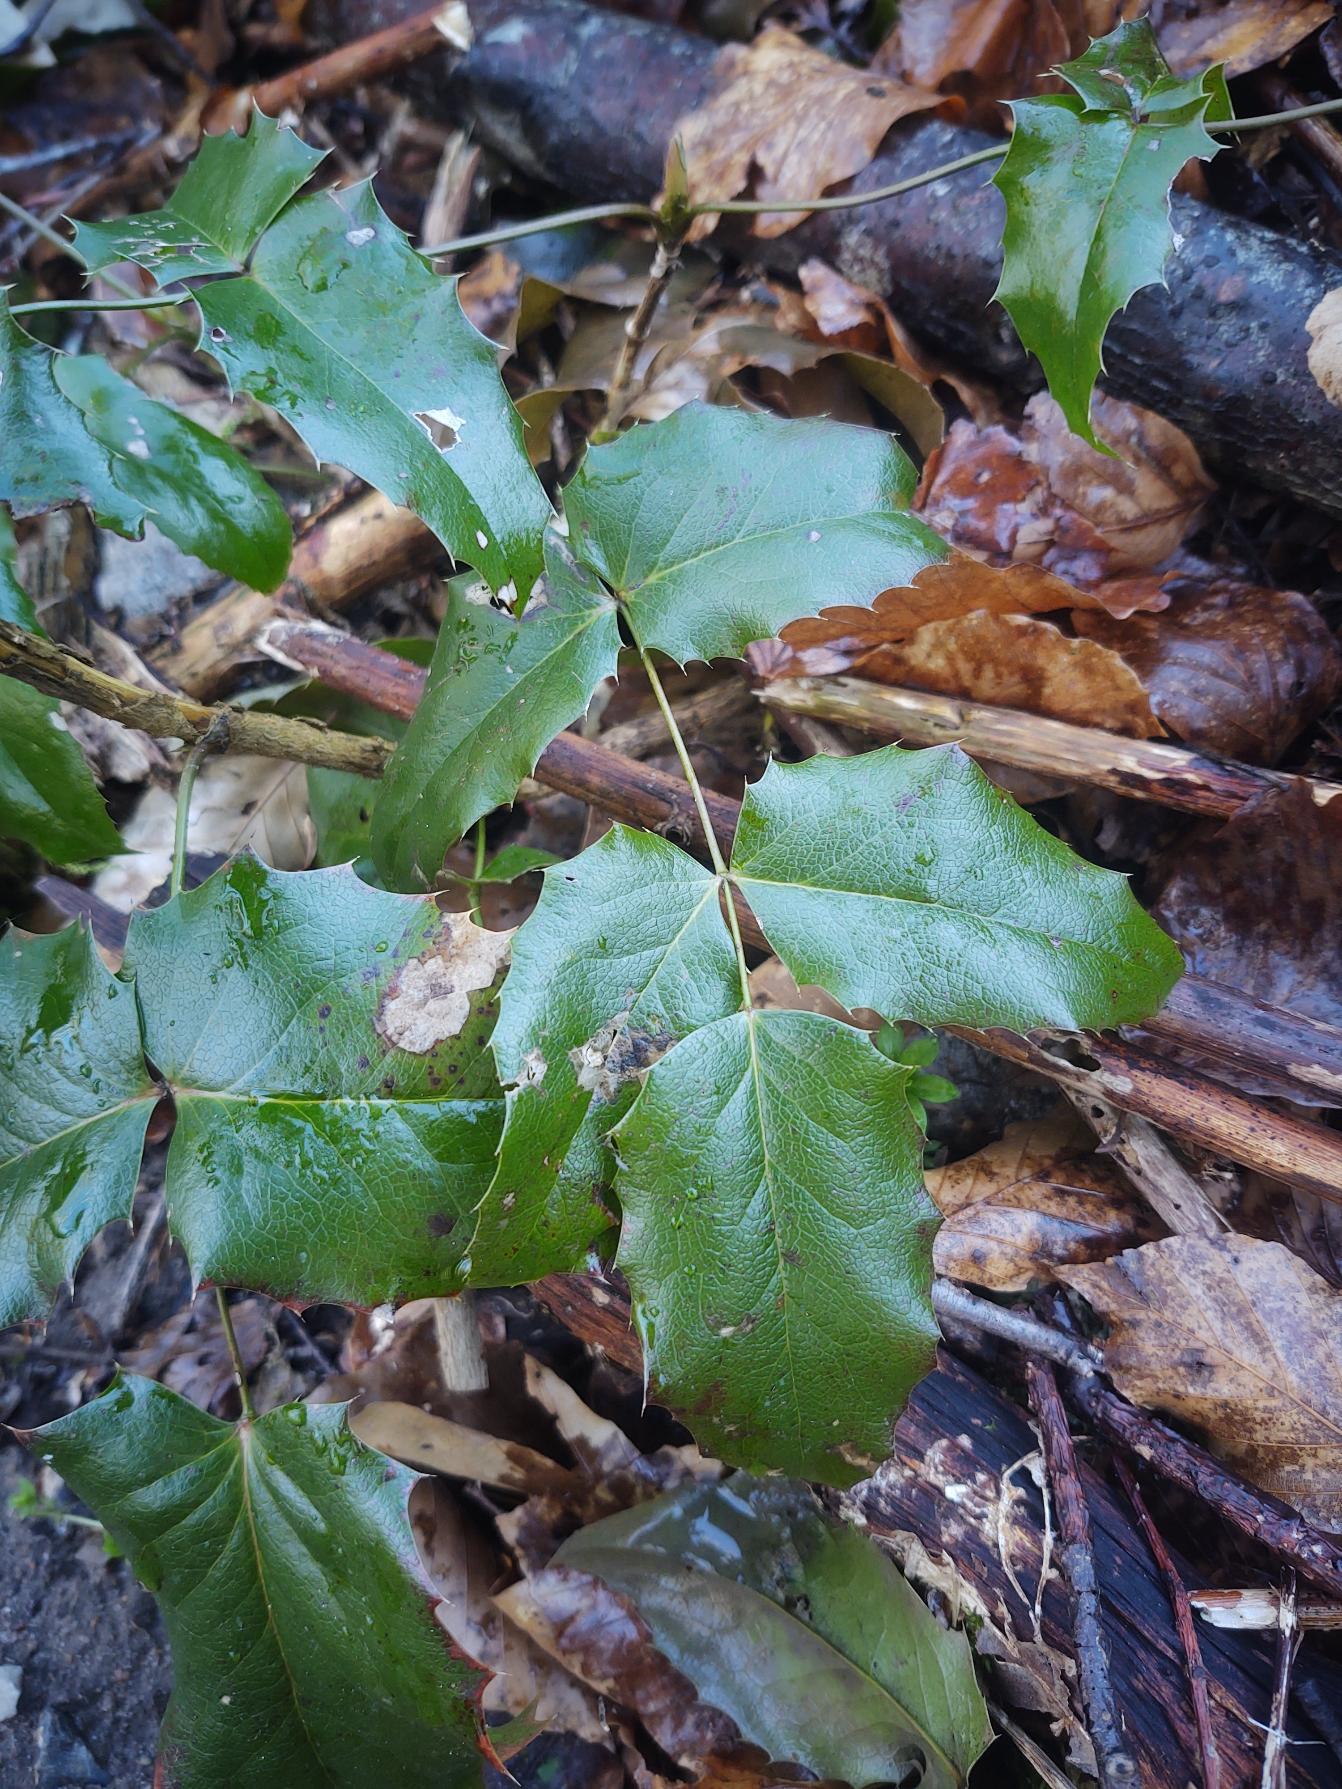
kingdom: Plantae
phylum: Tracheophyta
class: Magnoliopsida
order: Ranunculales
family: Berberidaceae
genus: Mahonia
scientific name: Mahonia aquifolium
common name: Almindelig mahonie
